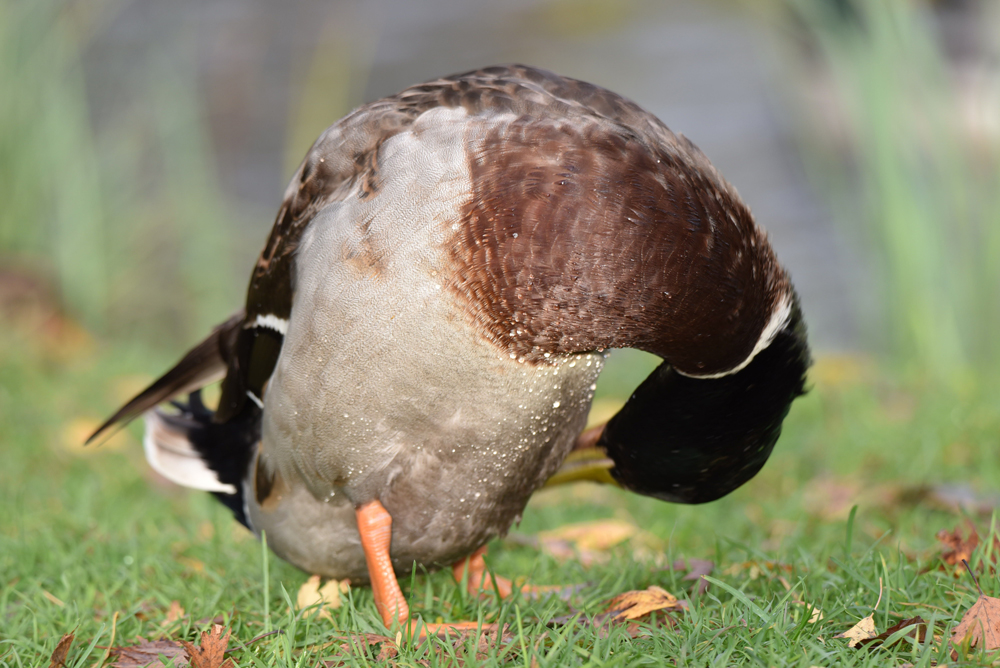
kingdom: Animalia
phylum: Chordata
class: Aves
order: Anseriformes
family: Anatidae
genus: Anas
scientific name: Anas platyrhynchos
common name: Mallard
